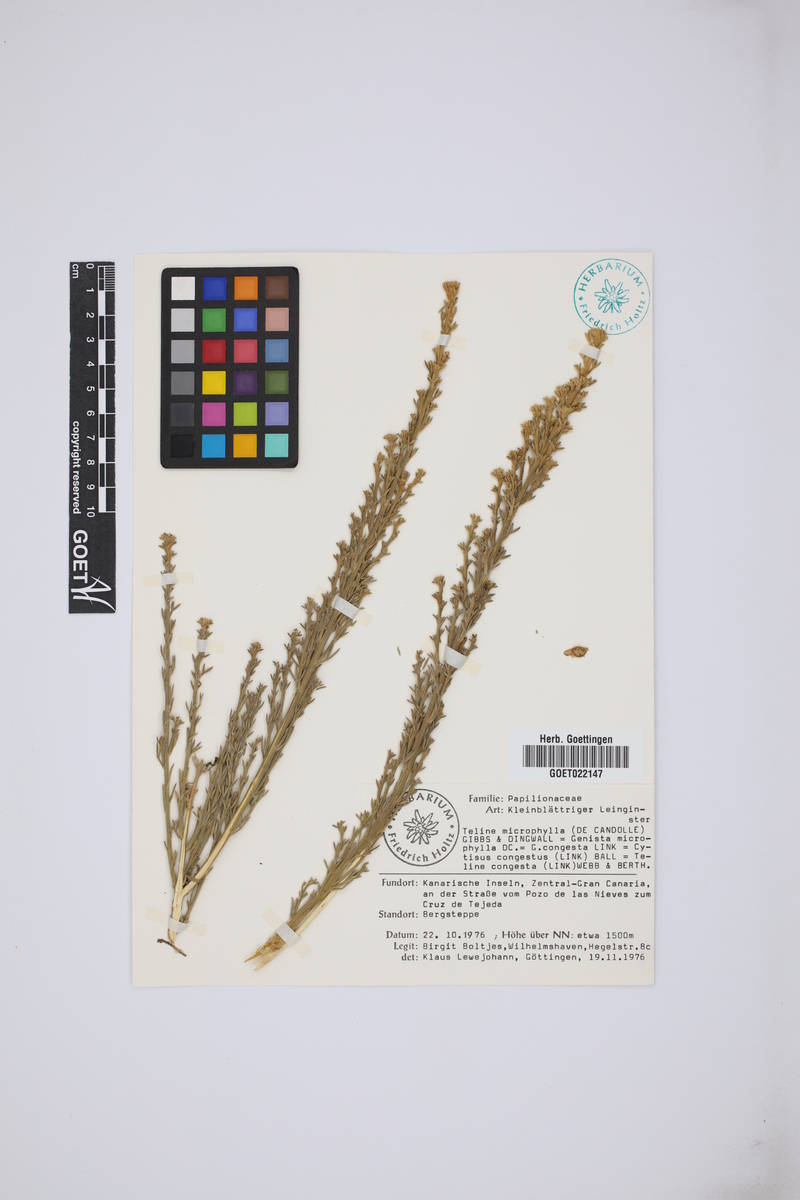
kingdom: Plantae
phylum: Tracheophyta
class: Magnoliopsida
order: Fabales
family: Fabaceae
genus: Genista
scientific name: Genista microphylla
